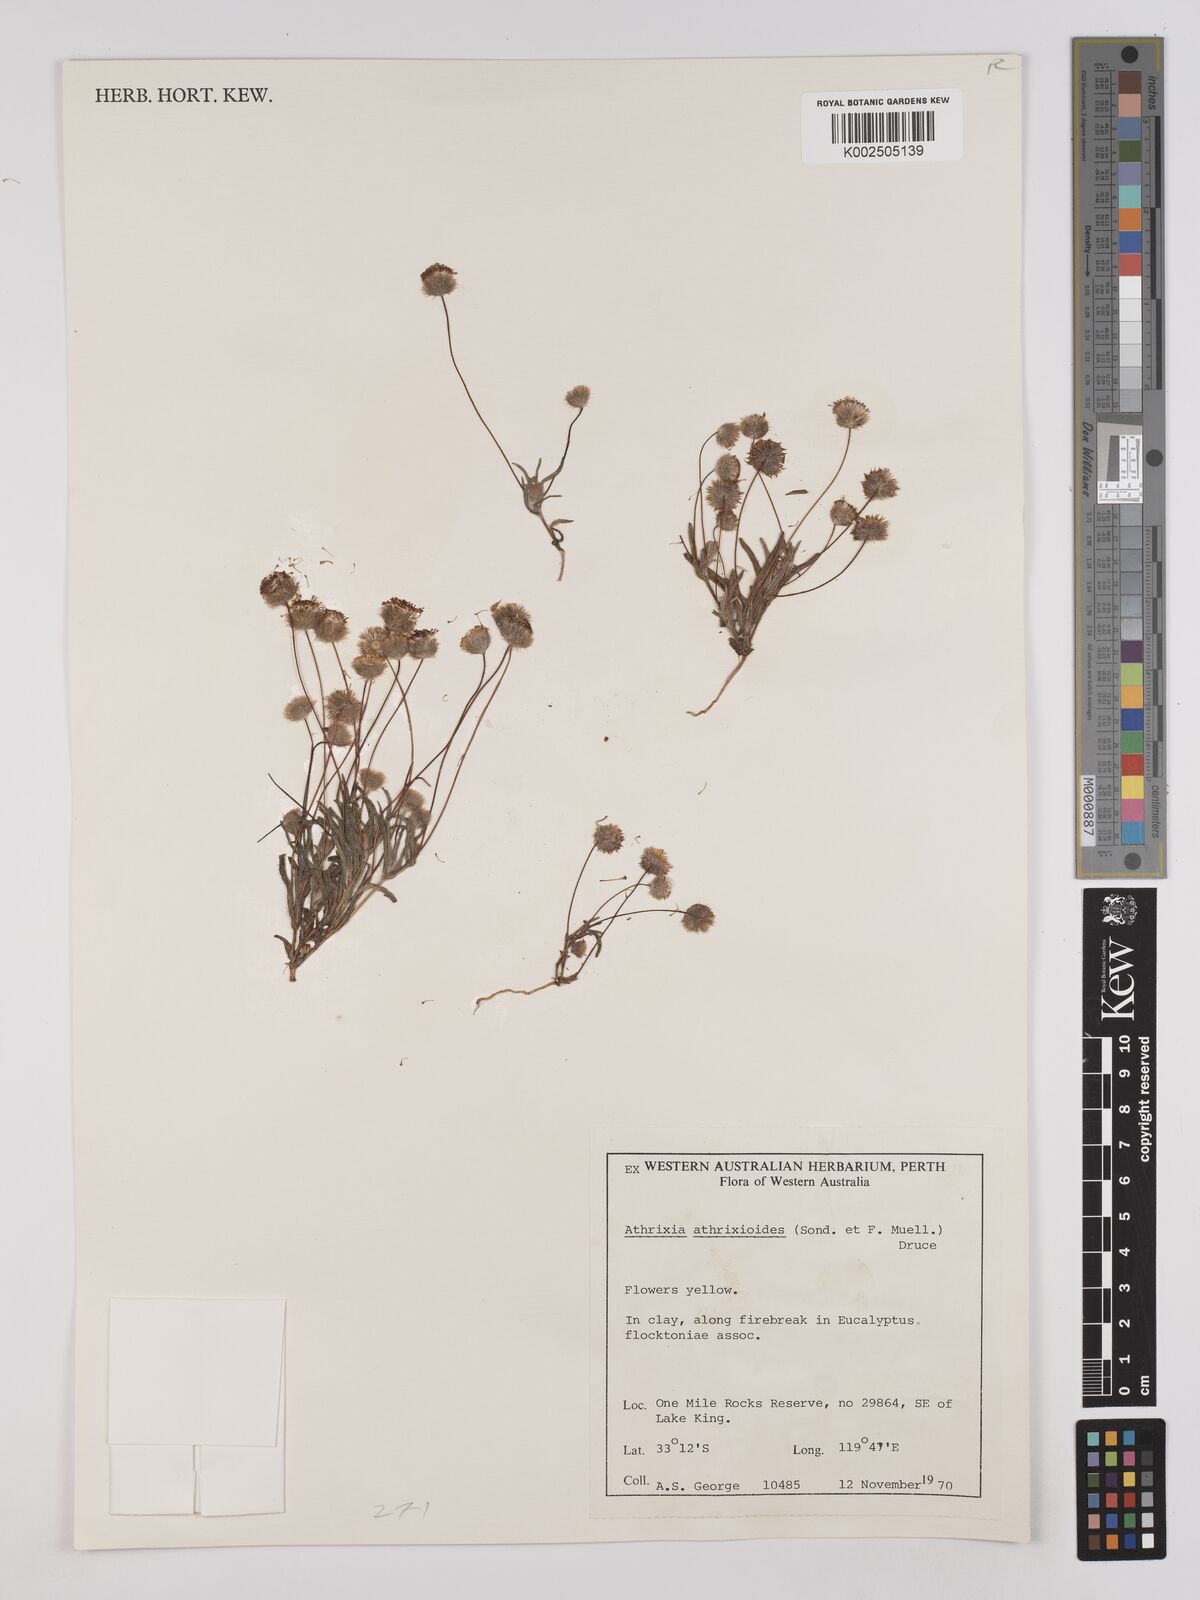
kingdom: Plantae
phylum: Tracheophyta
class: Magnoliopsida
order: Asterales
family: Asteraceae
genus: Asteridea
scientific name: Asteridea athrixioides
